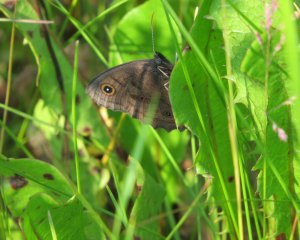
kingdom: Animalia
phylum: Arthropoda
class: Insecta
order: Lepidoptera
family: Nymphalidae
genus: Cercyonis
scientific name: Cercyonis pegala
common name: Common Wood-Nymph
